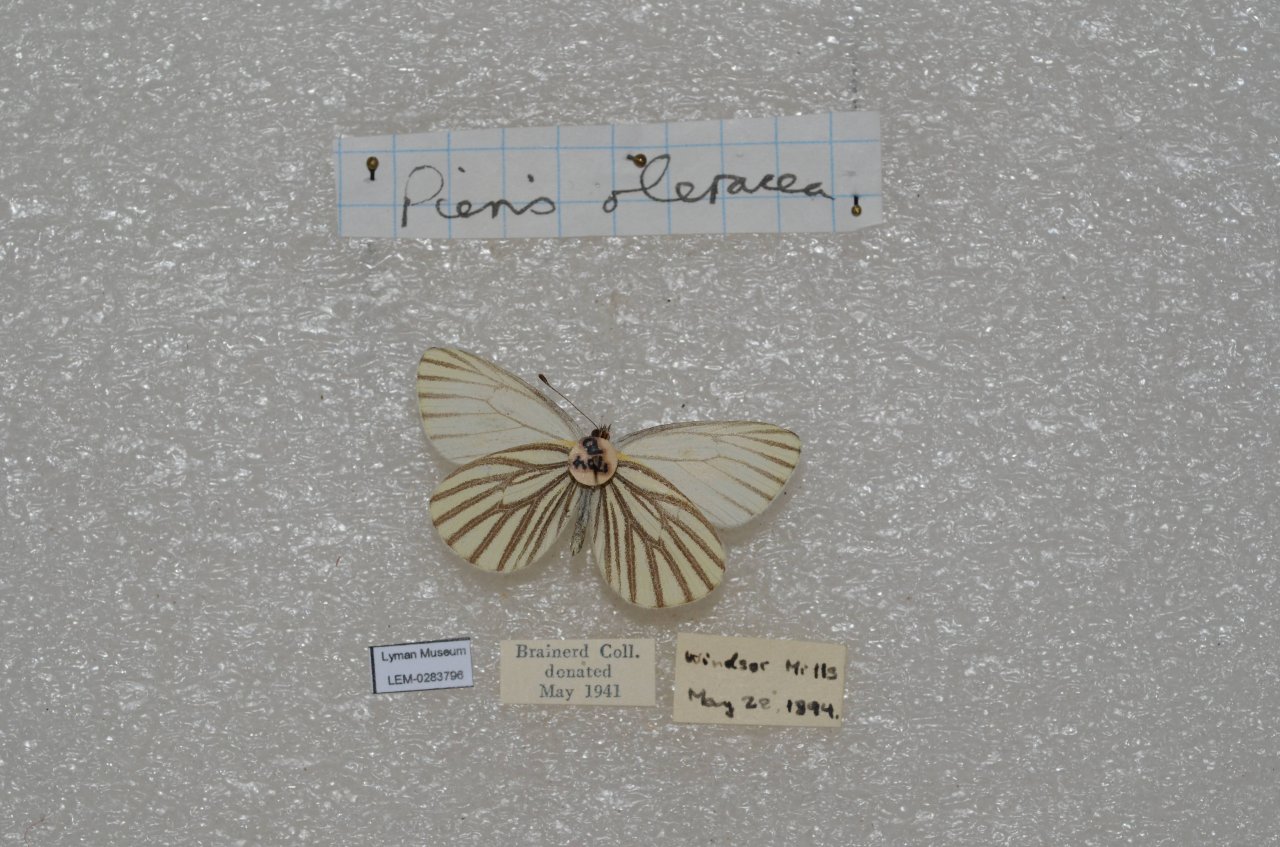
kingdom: Animalia
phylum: Arthropoda
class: Insecta
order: Lepidoptera
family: Pieridae
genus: Pieris
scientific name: Pieris oleracea
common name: Mustard White
